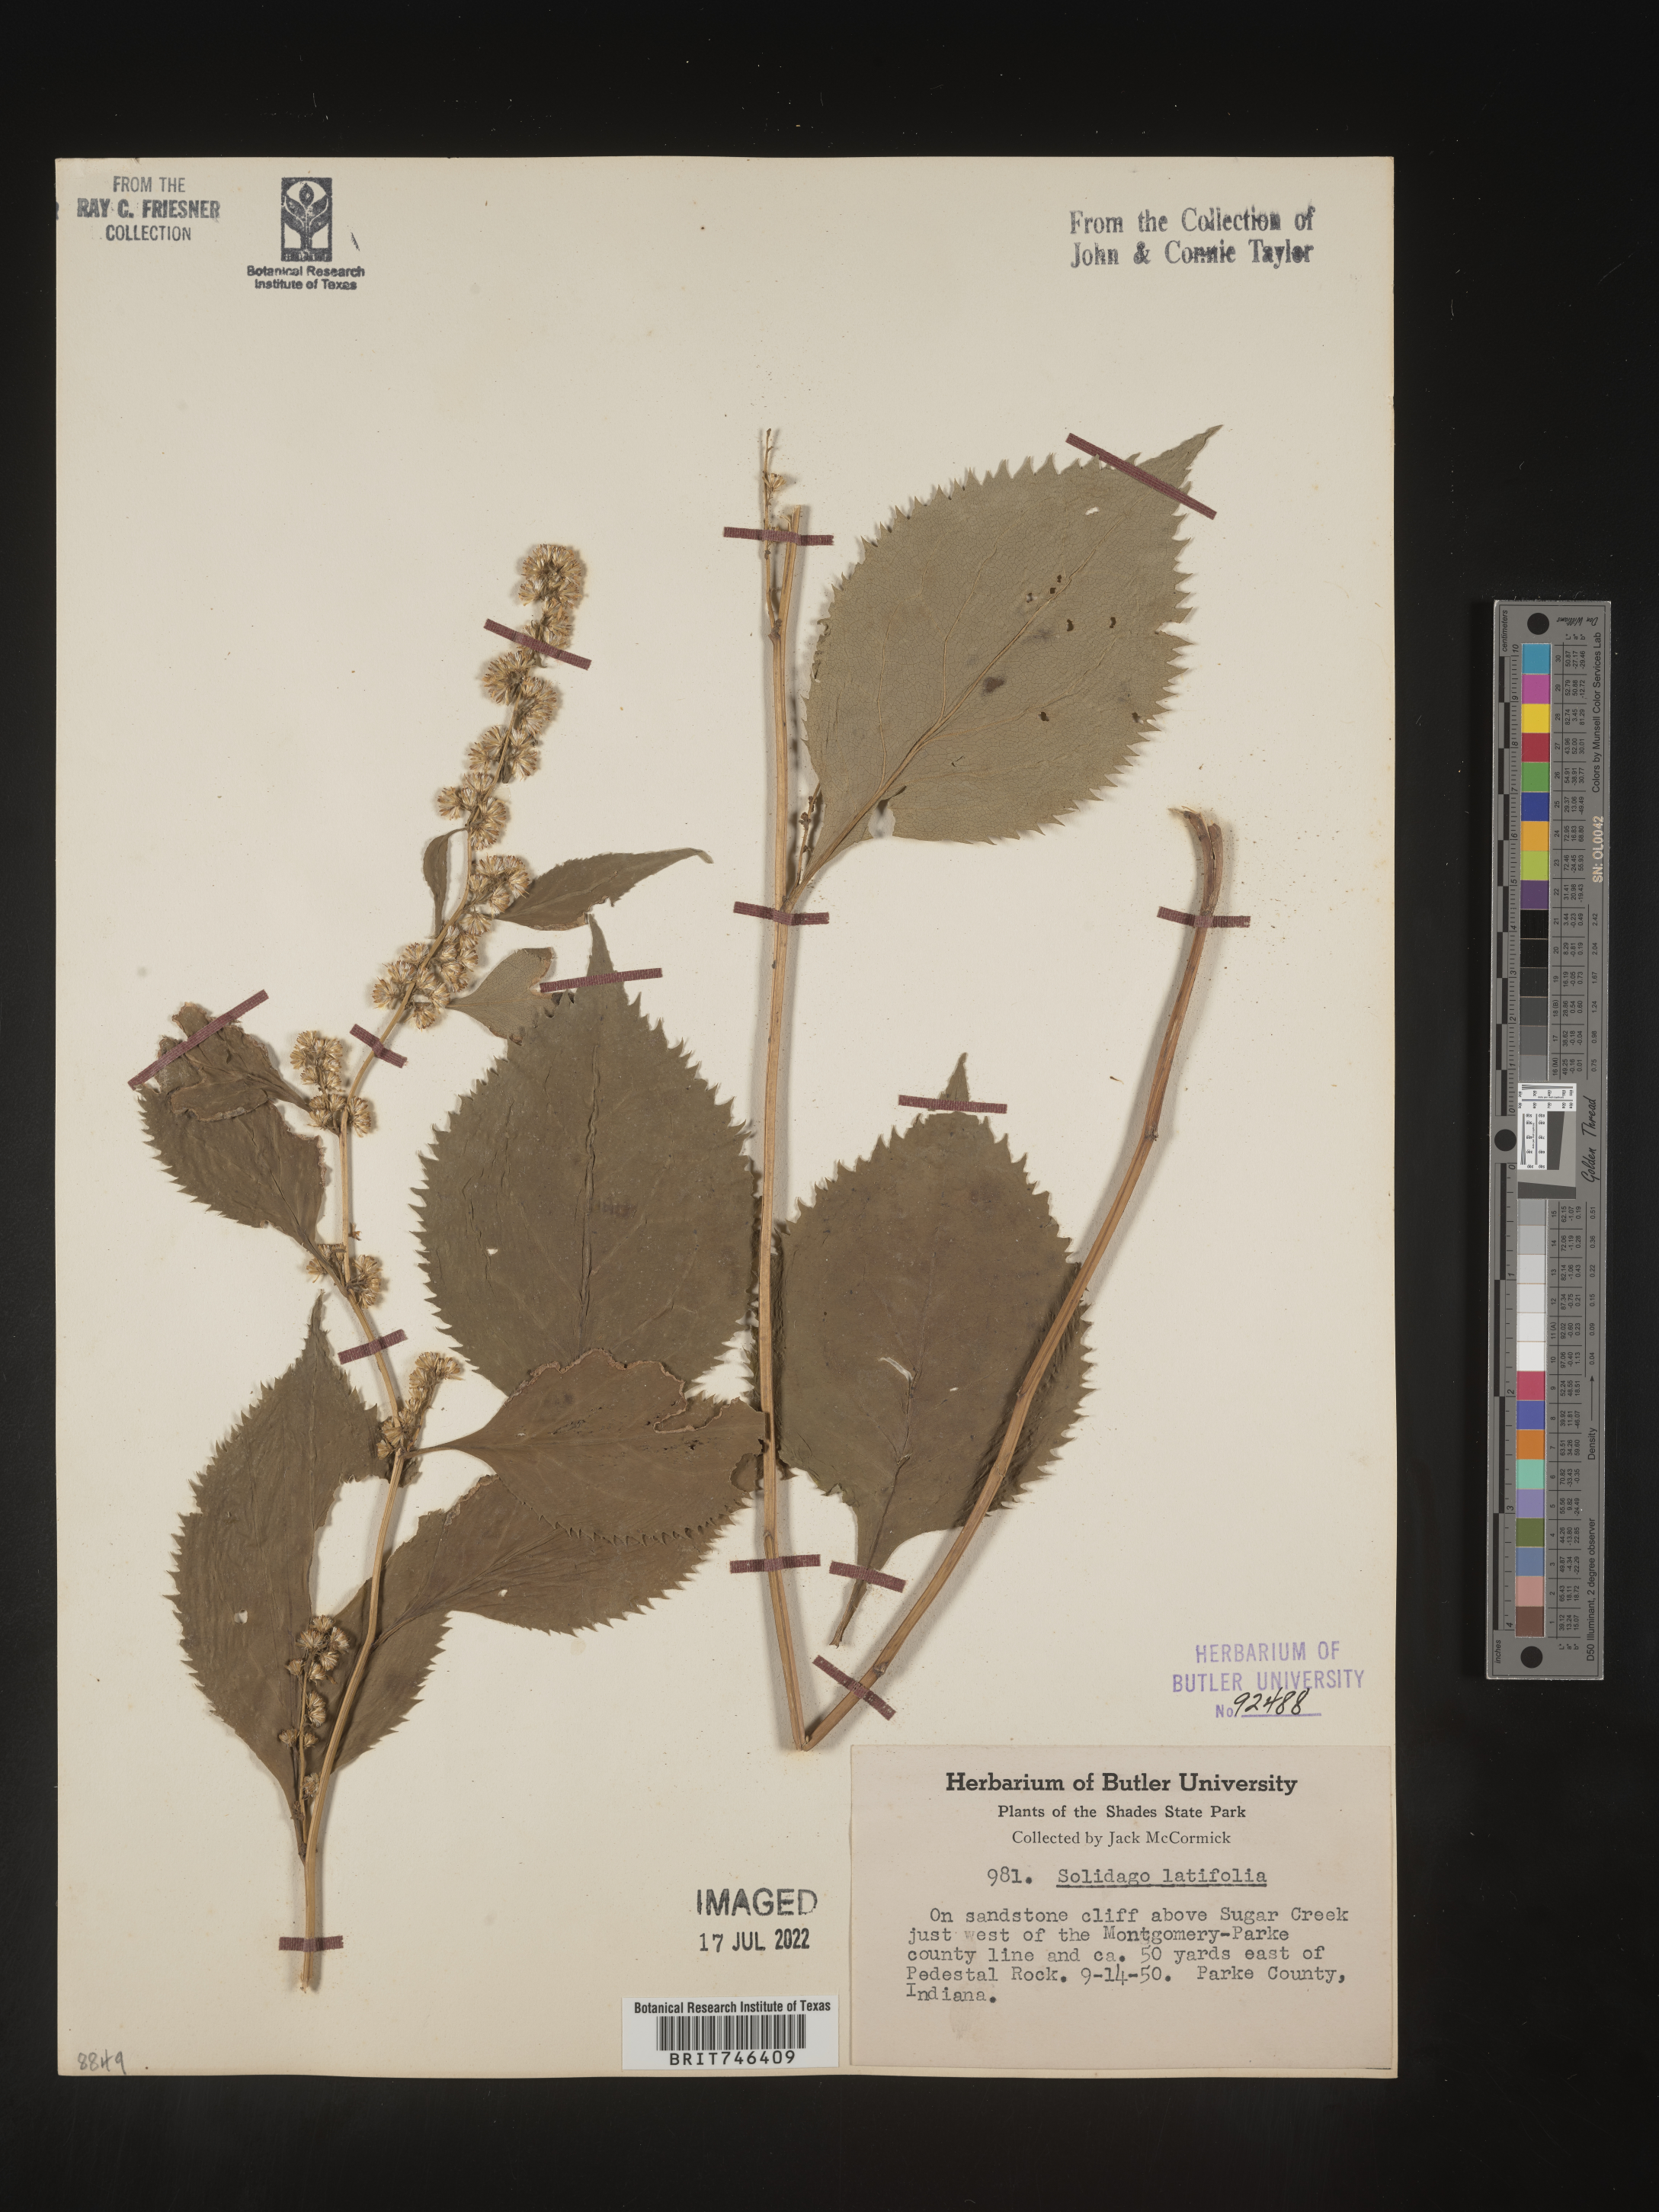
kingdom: Plantae
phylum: Tracheophyta
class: Magnoliopsida
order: Asterales
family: Asteraceae
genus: Solidago
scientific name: Solidago flexicaulis
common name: Zig-zag goldenrod
